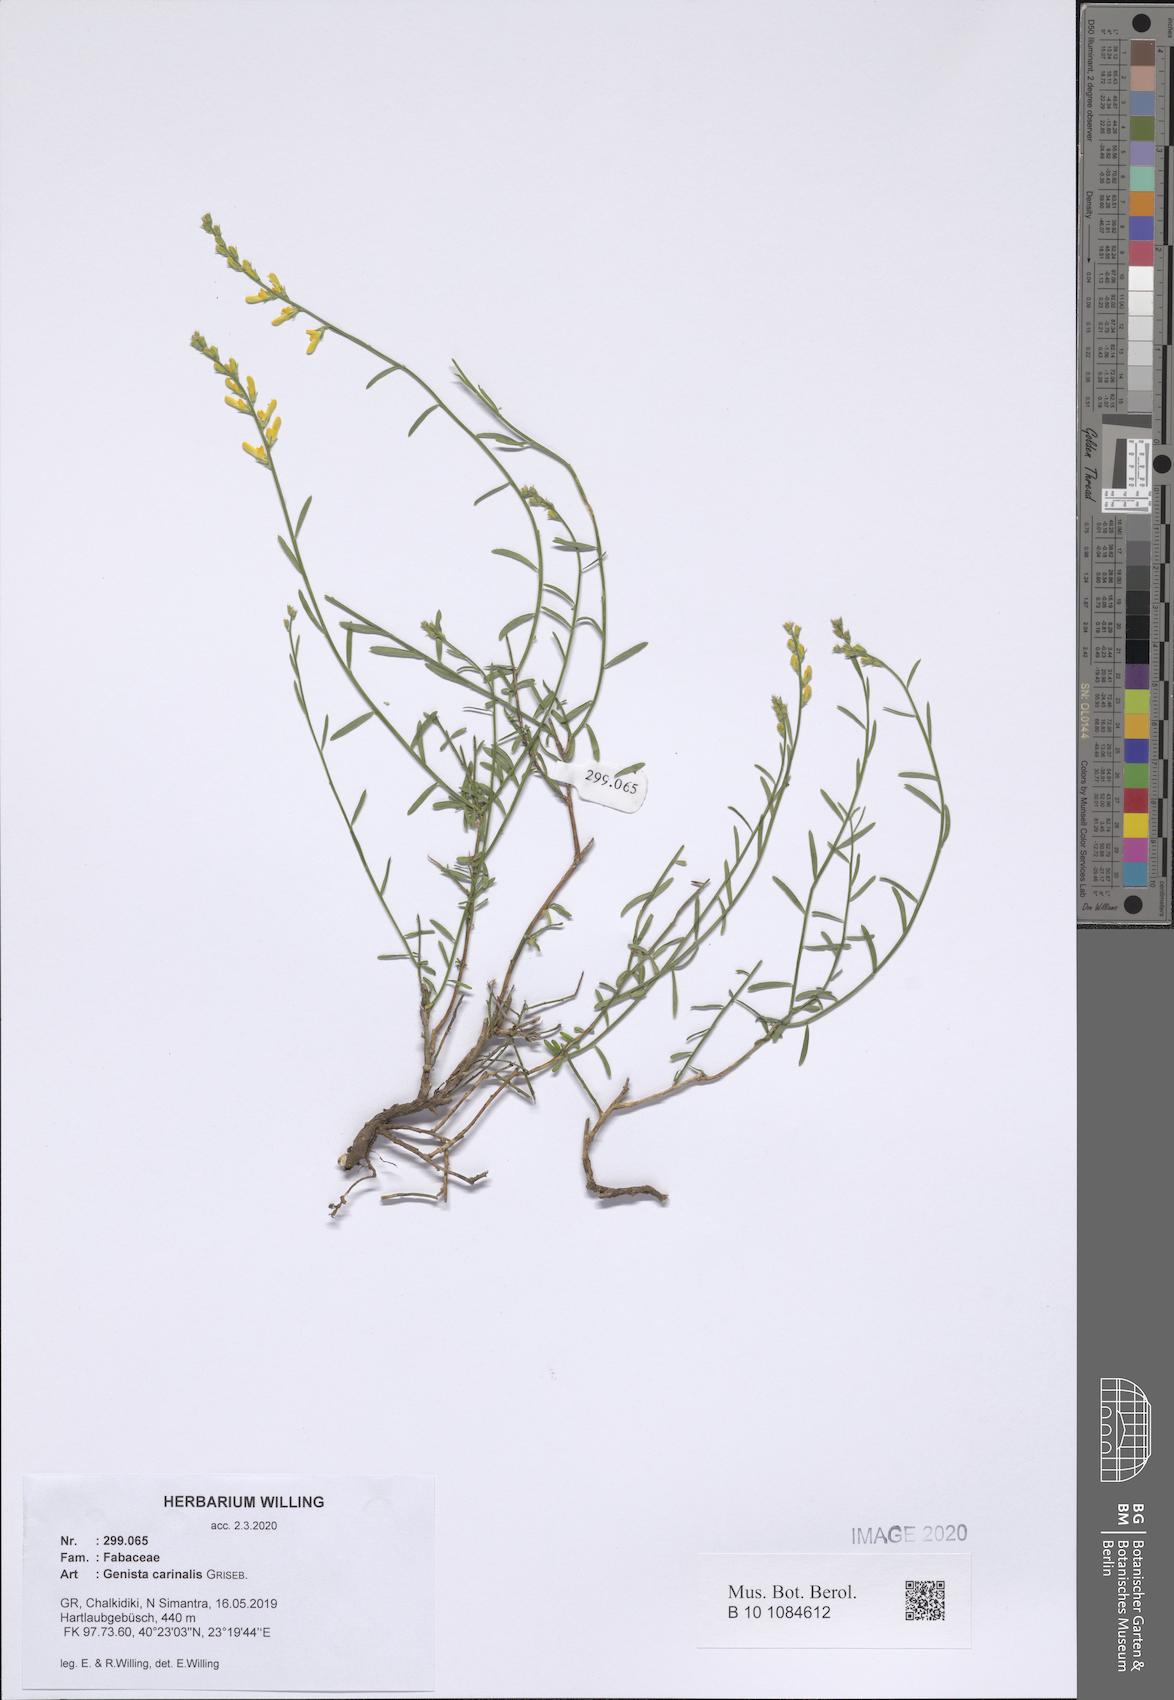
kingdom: Plantae
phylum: Tracheophyta
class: Magnoliopsida
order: Fabales
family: Fabaceae
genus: Genista
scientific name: Genista carinalis
